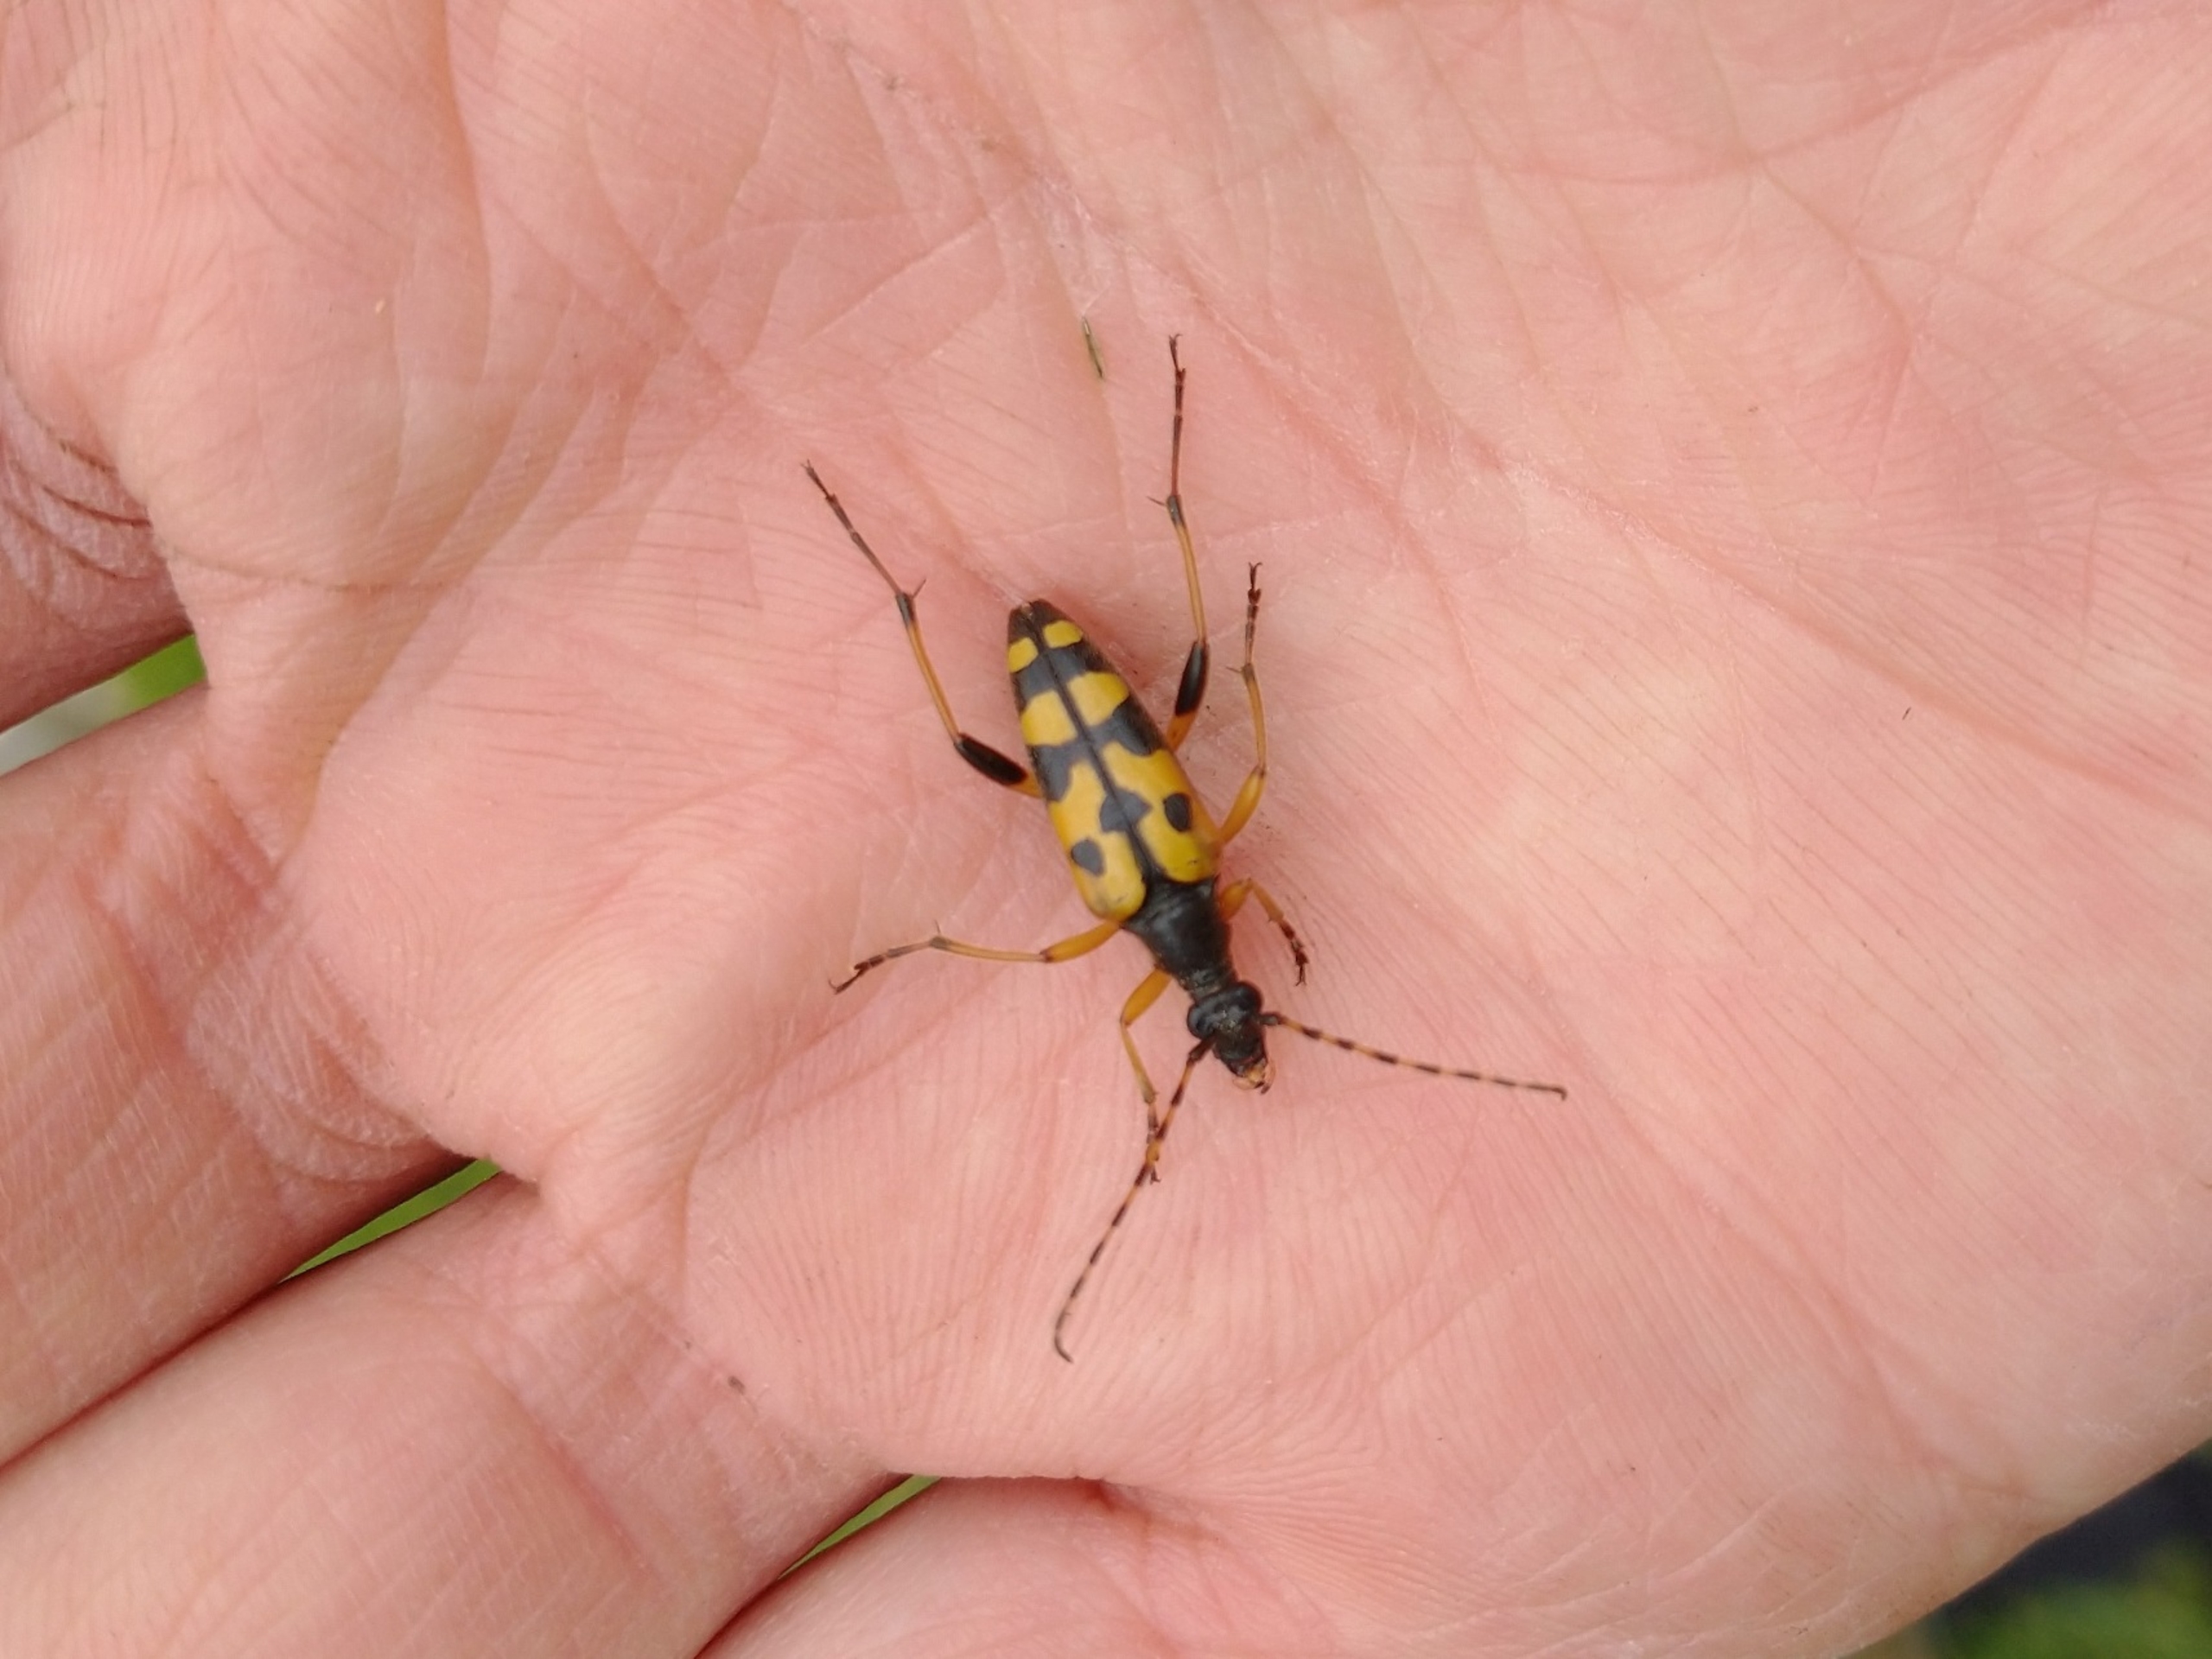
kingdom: Animalia
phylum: Arthropoda
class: Insecta
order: Coleoptera
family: Cerambycidae
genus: Rutpela
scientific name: Rutpela maculata
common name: Sydlig blomsterbuk
